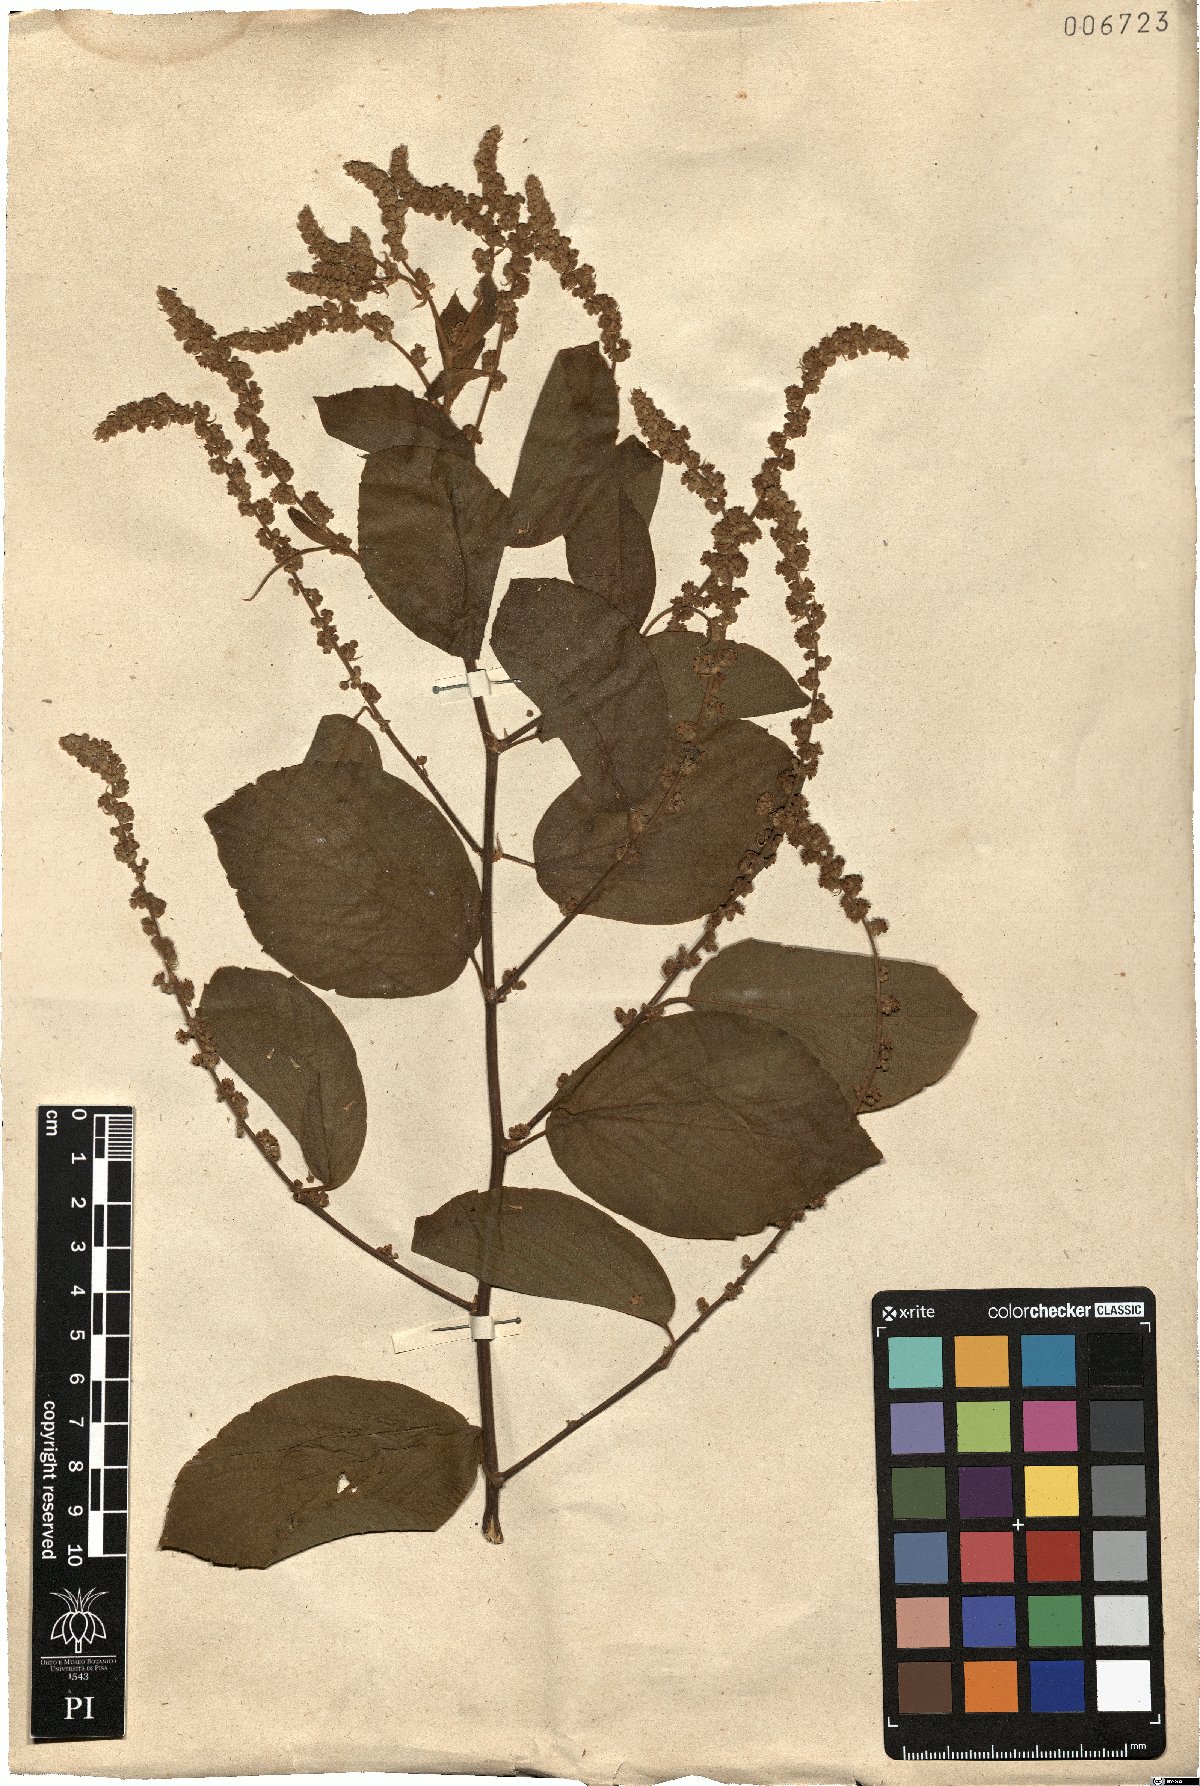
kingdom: Plantae
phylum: Tracheophyta
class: Magnoliopsida
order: Rosales
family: Rhamnaceae
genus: Gouania
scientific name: Gouania corylifolia
